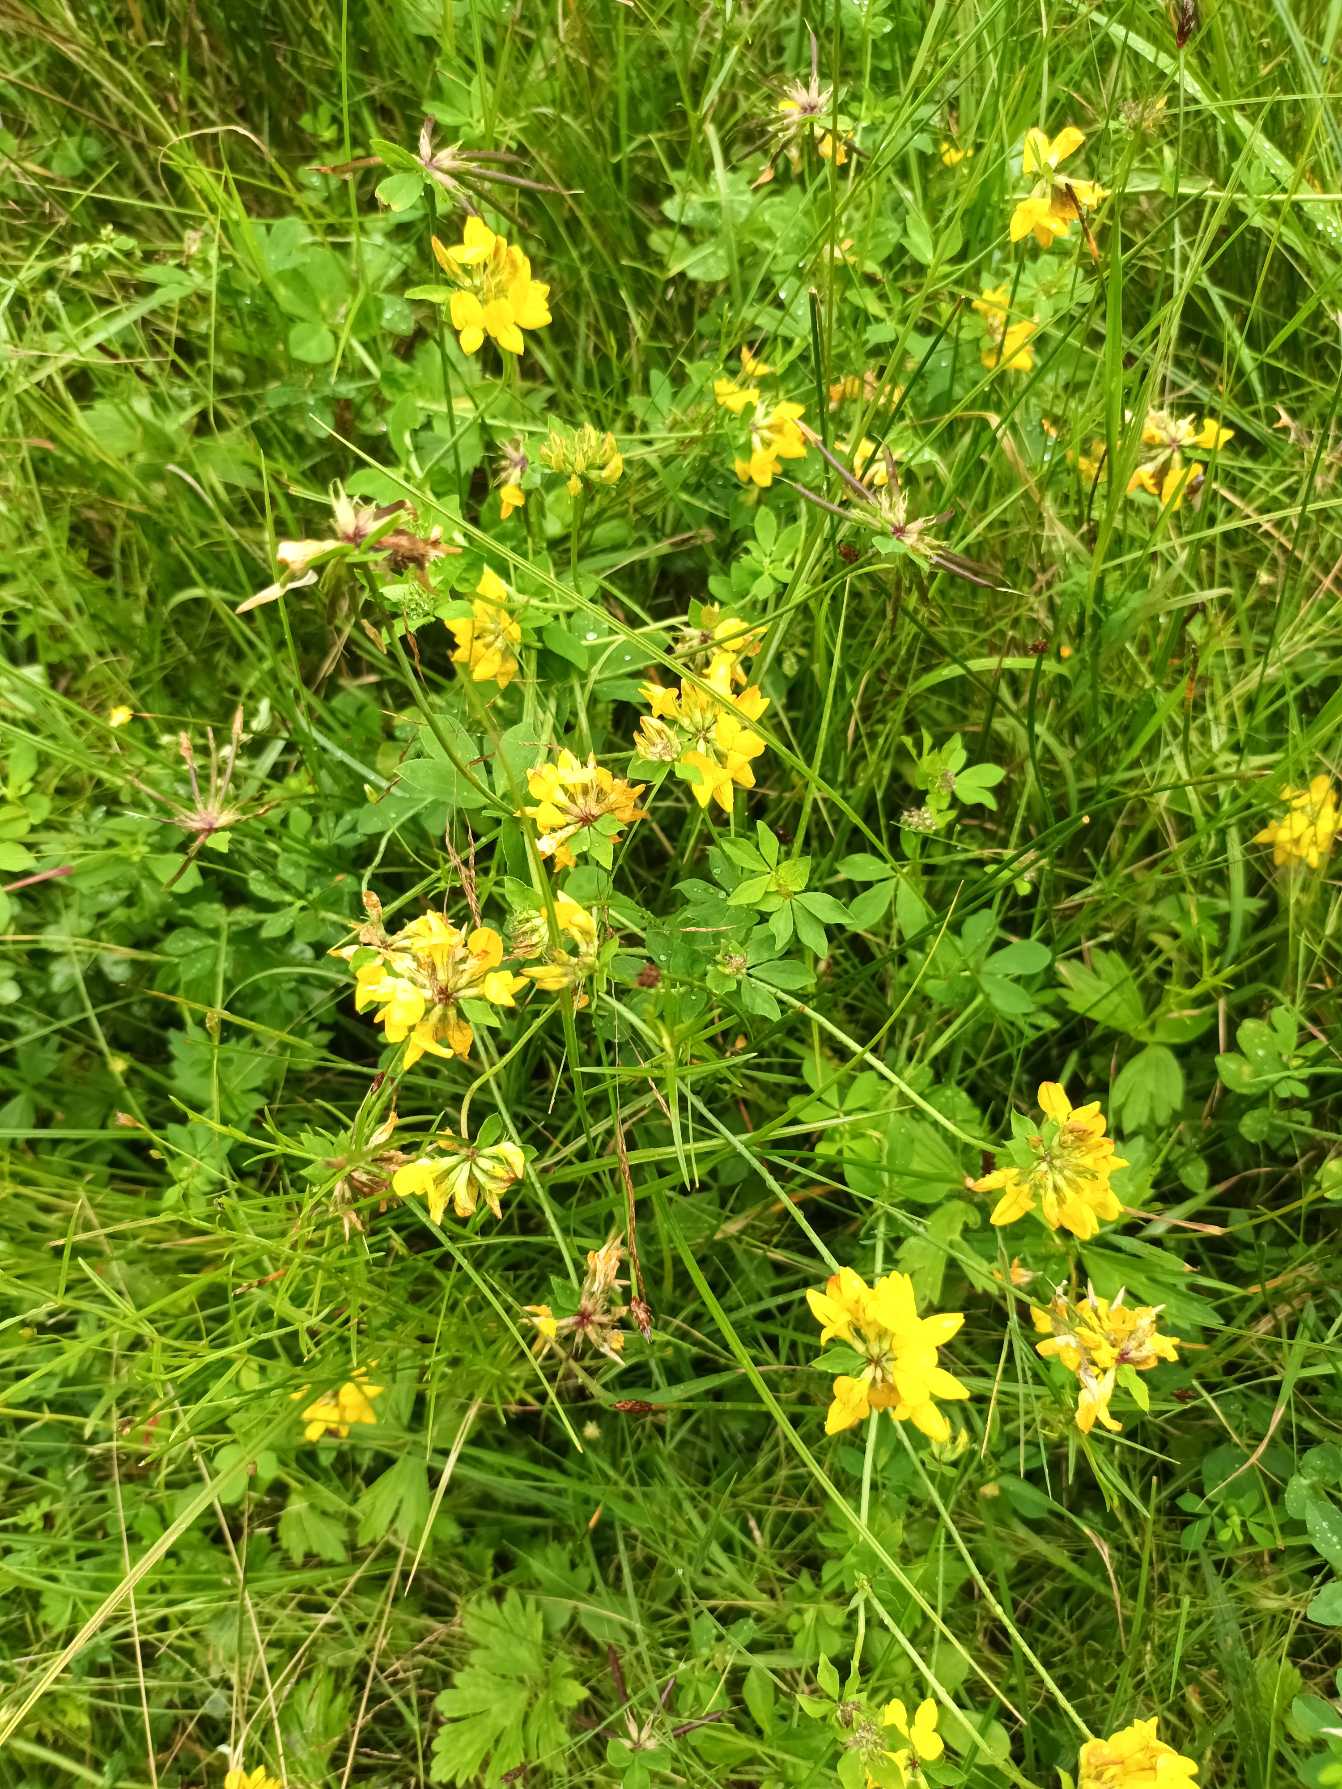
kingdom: Plantae
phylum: Tracheophyta
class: Magnoliopsida
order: Fabales
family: Fabaceae
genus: Lotus
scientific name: Lotus pedunculatus
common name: Sump-kællingetand
